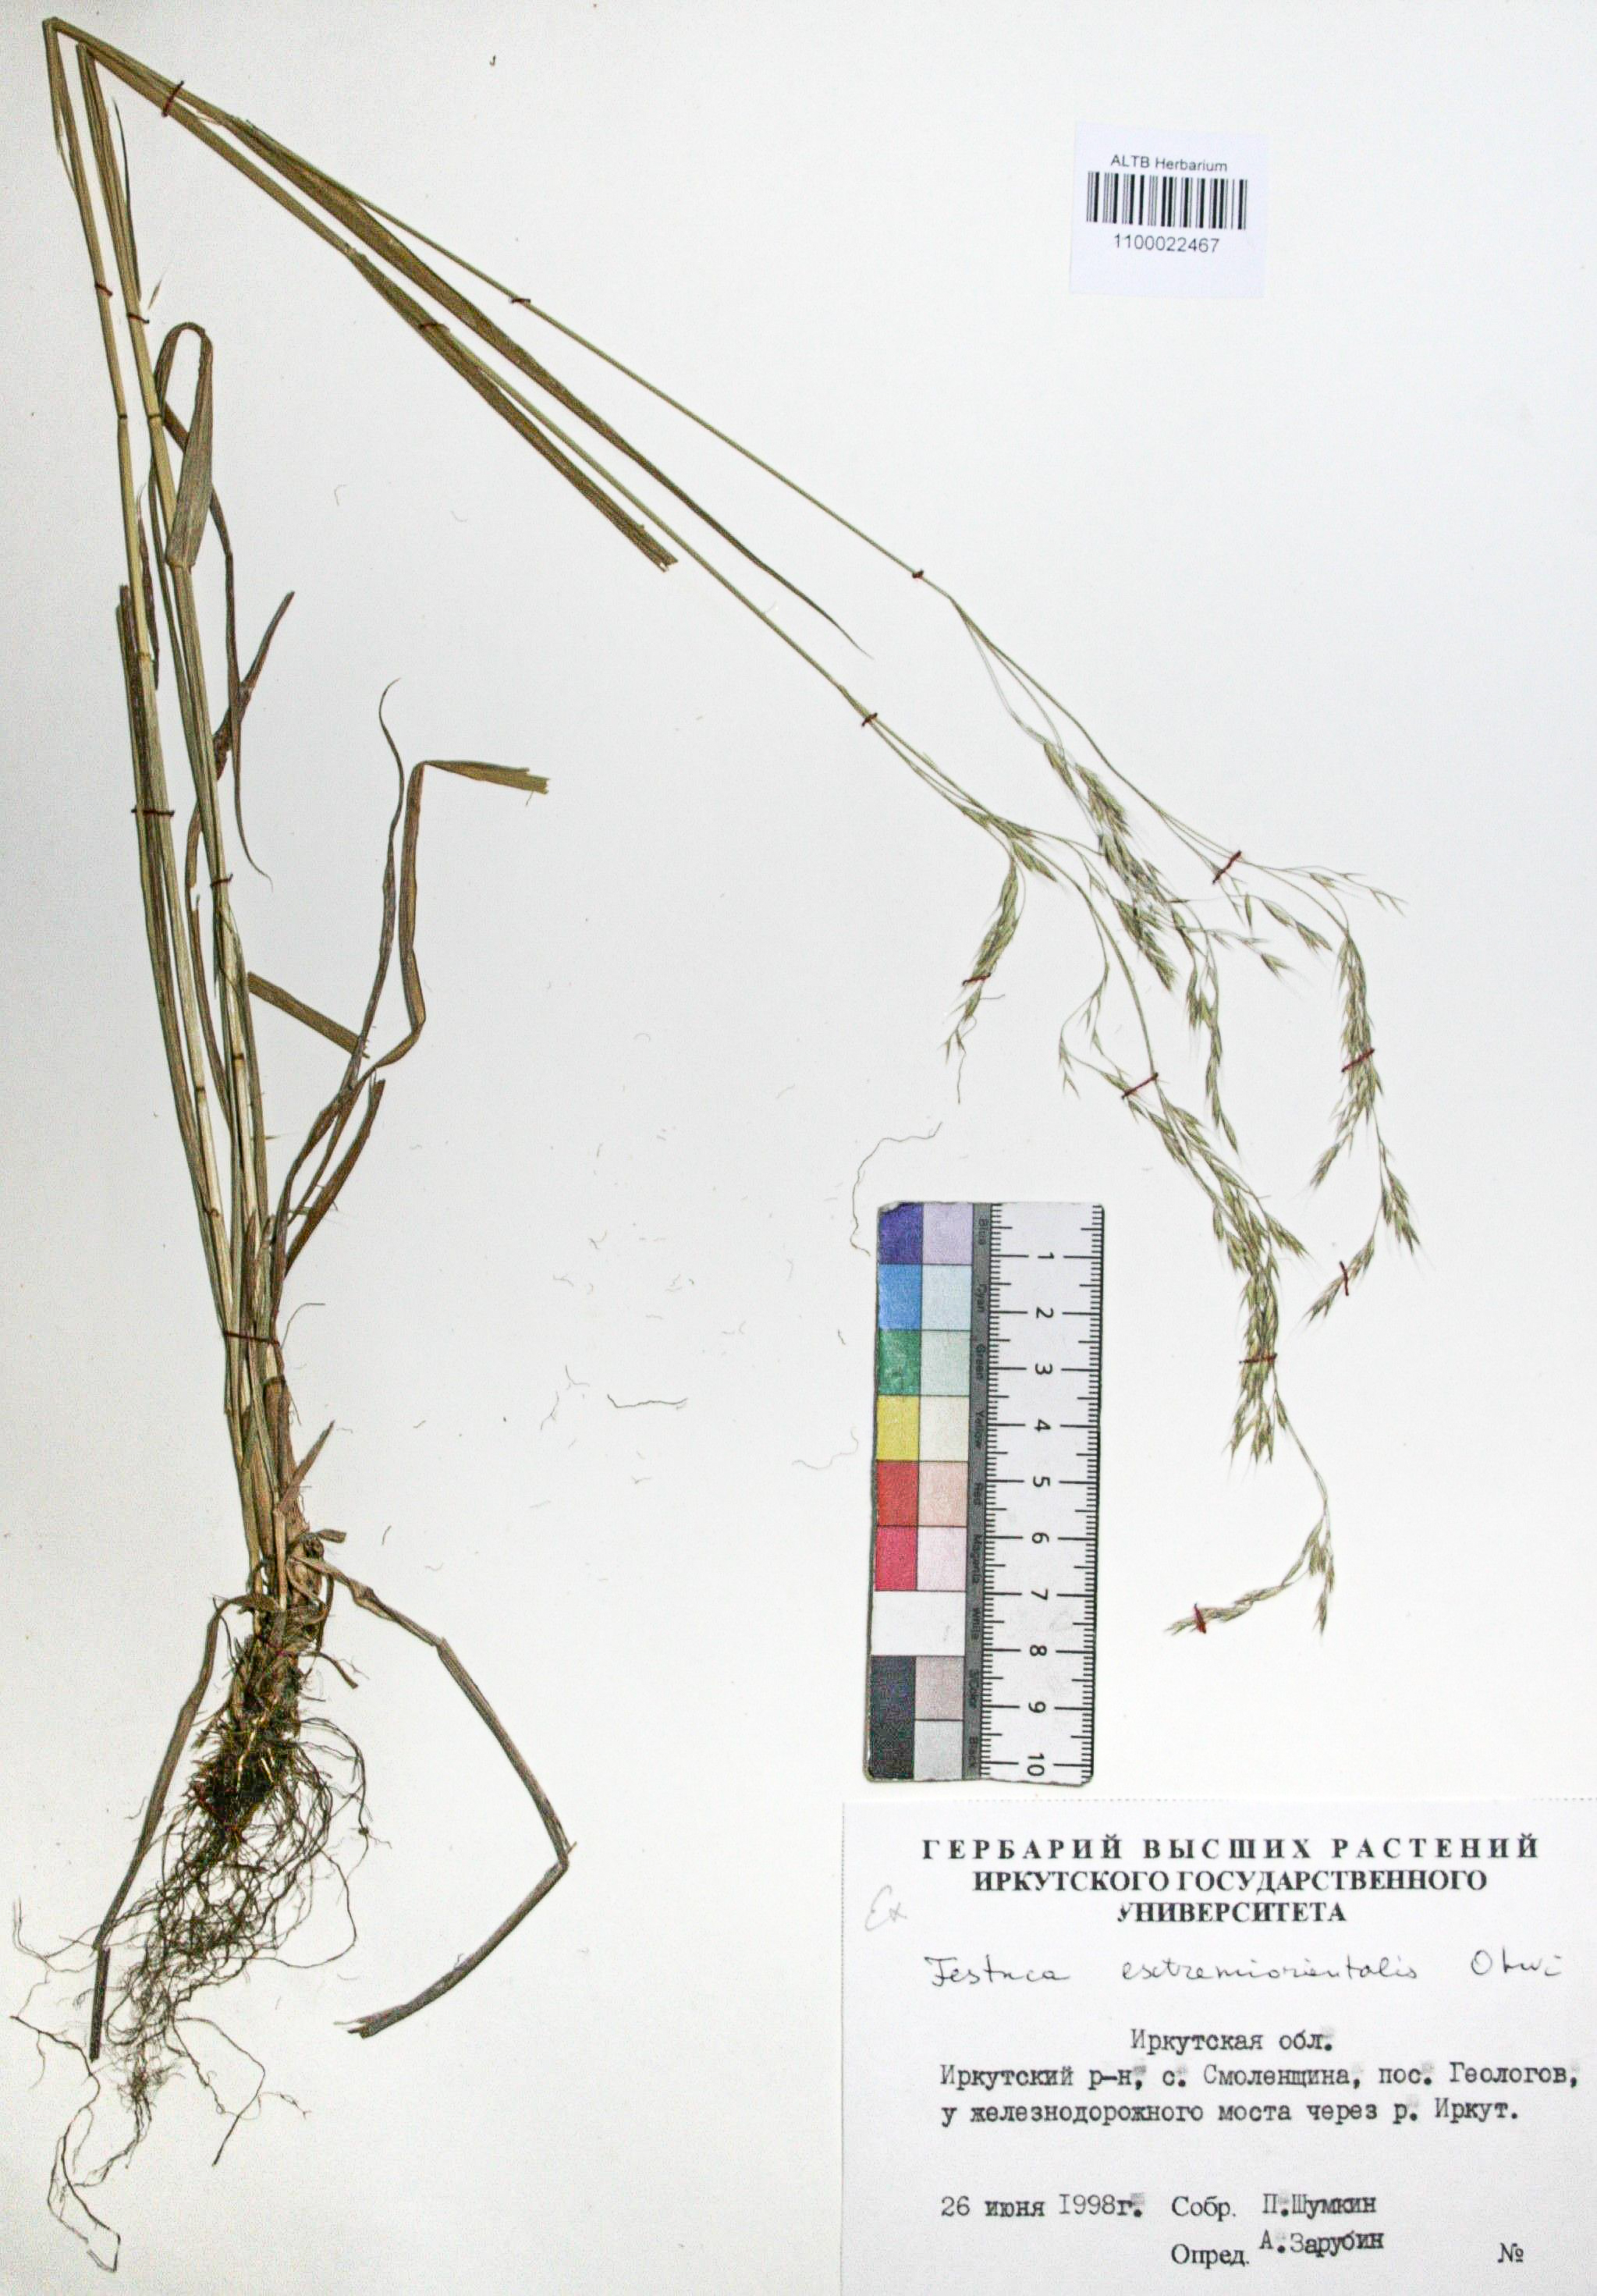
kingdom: Plantae
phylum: Tracheophyta
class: Liliopsida
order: Poales
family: Poaceae
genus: Festuca
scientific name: Festuca extremiorientalis
